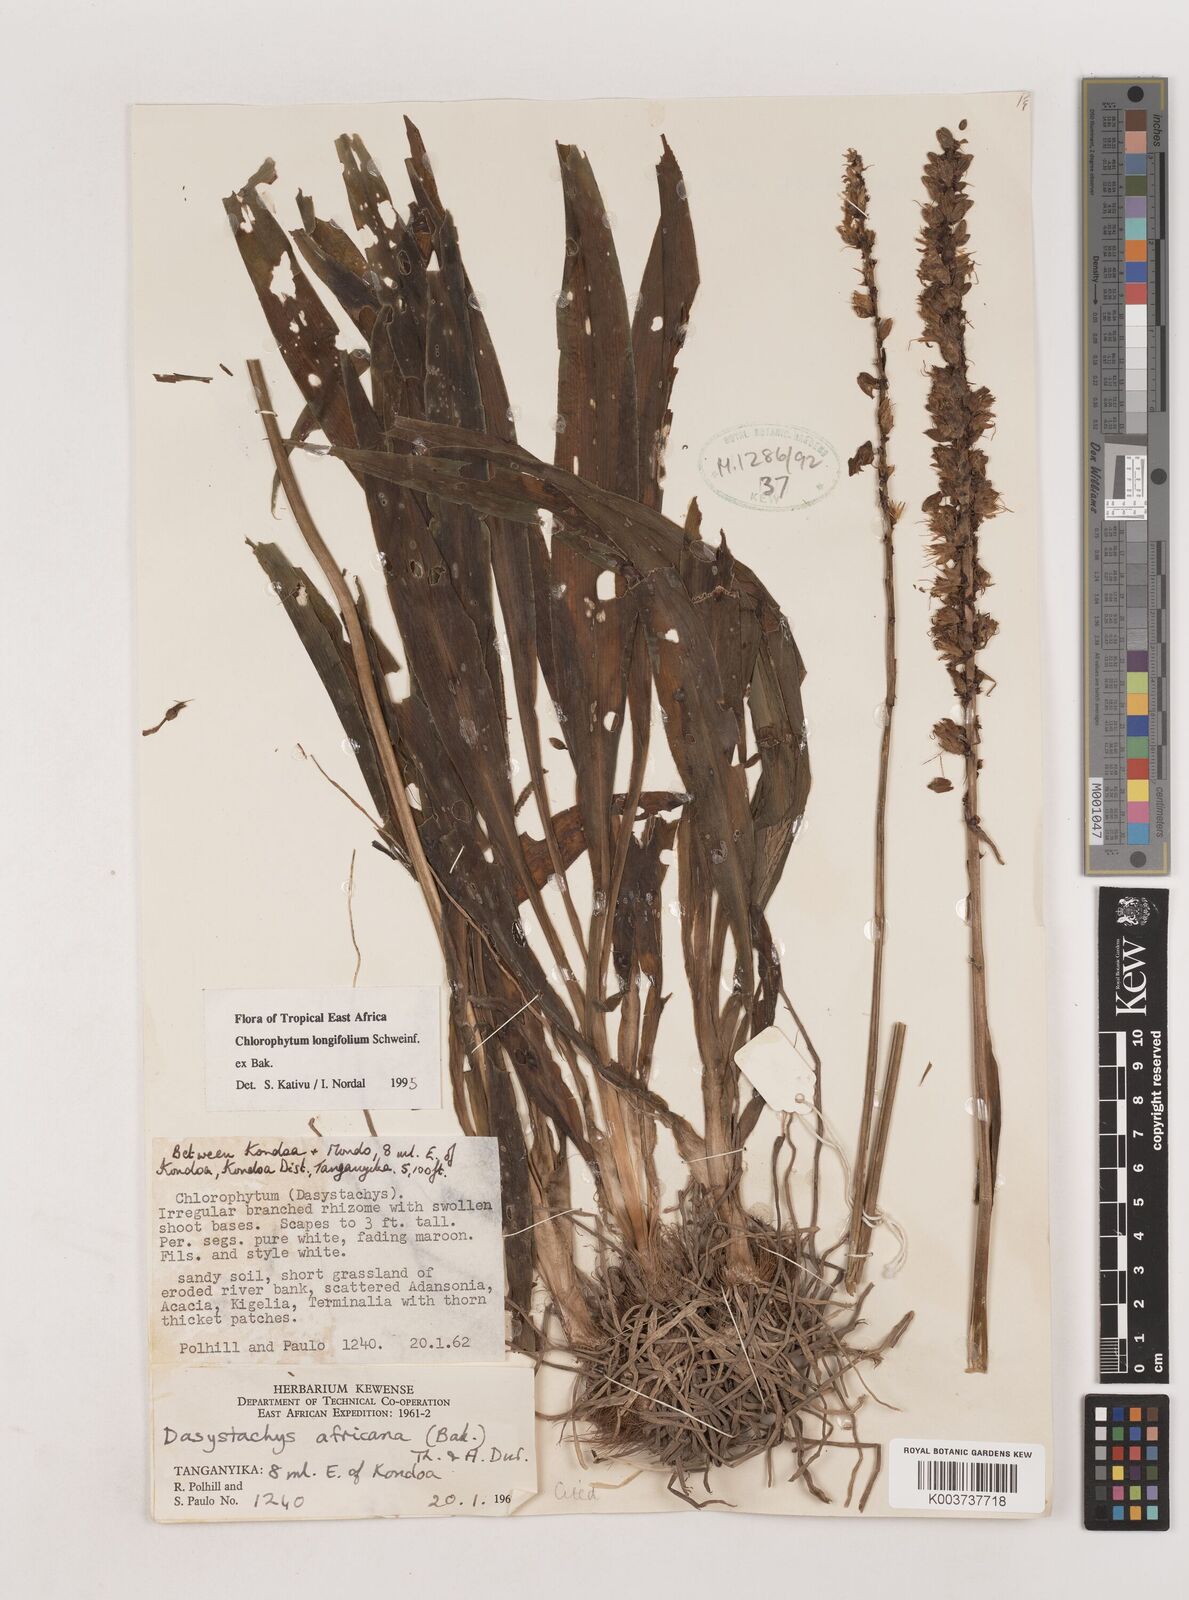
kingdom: Plantae
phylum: Tracheophyta
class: Liliopsida
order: Asparagales
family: Asparagaceae
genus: Chlorophytum
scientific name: Chlorophytum longifolium
